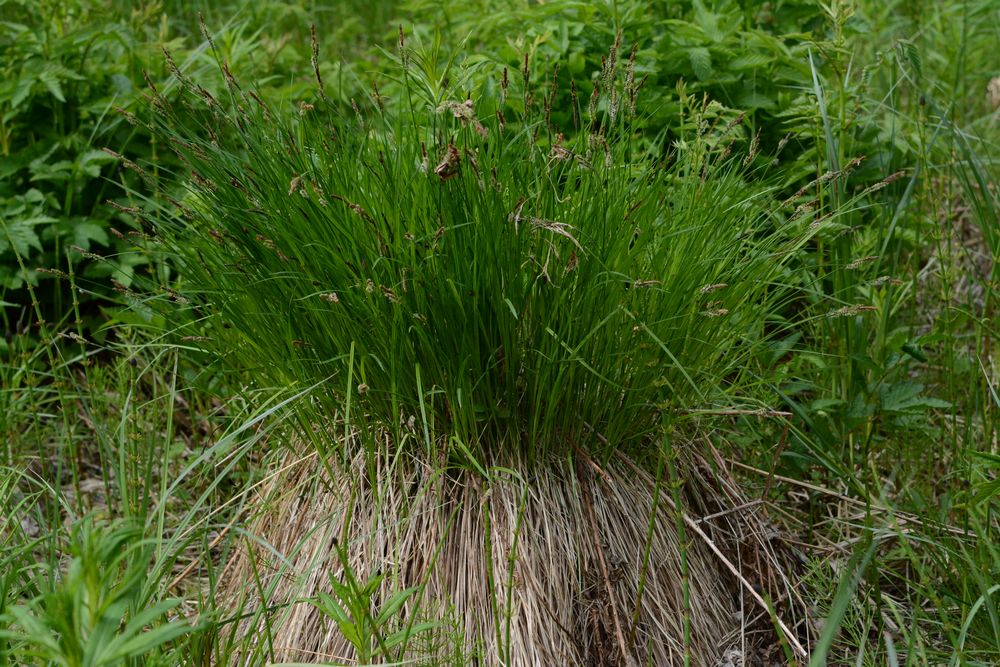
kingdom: Plantae
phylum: Tracheophyta
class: Liliopsida
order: Poales
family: Cyperaceae
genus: Carex
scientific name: Carex cespitosa
